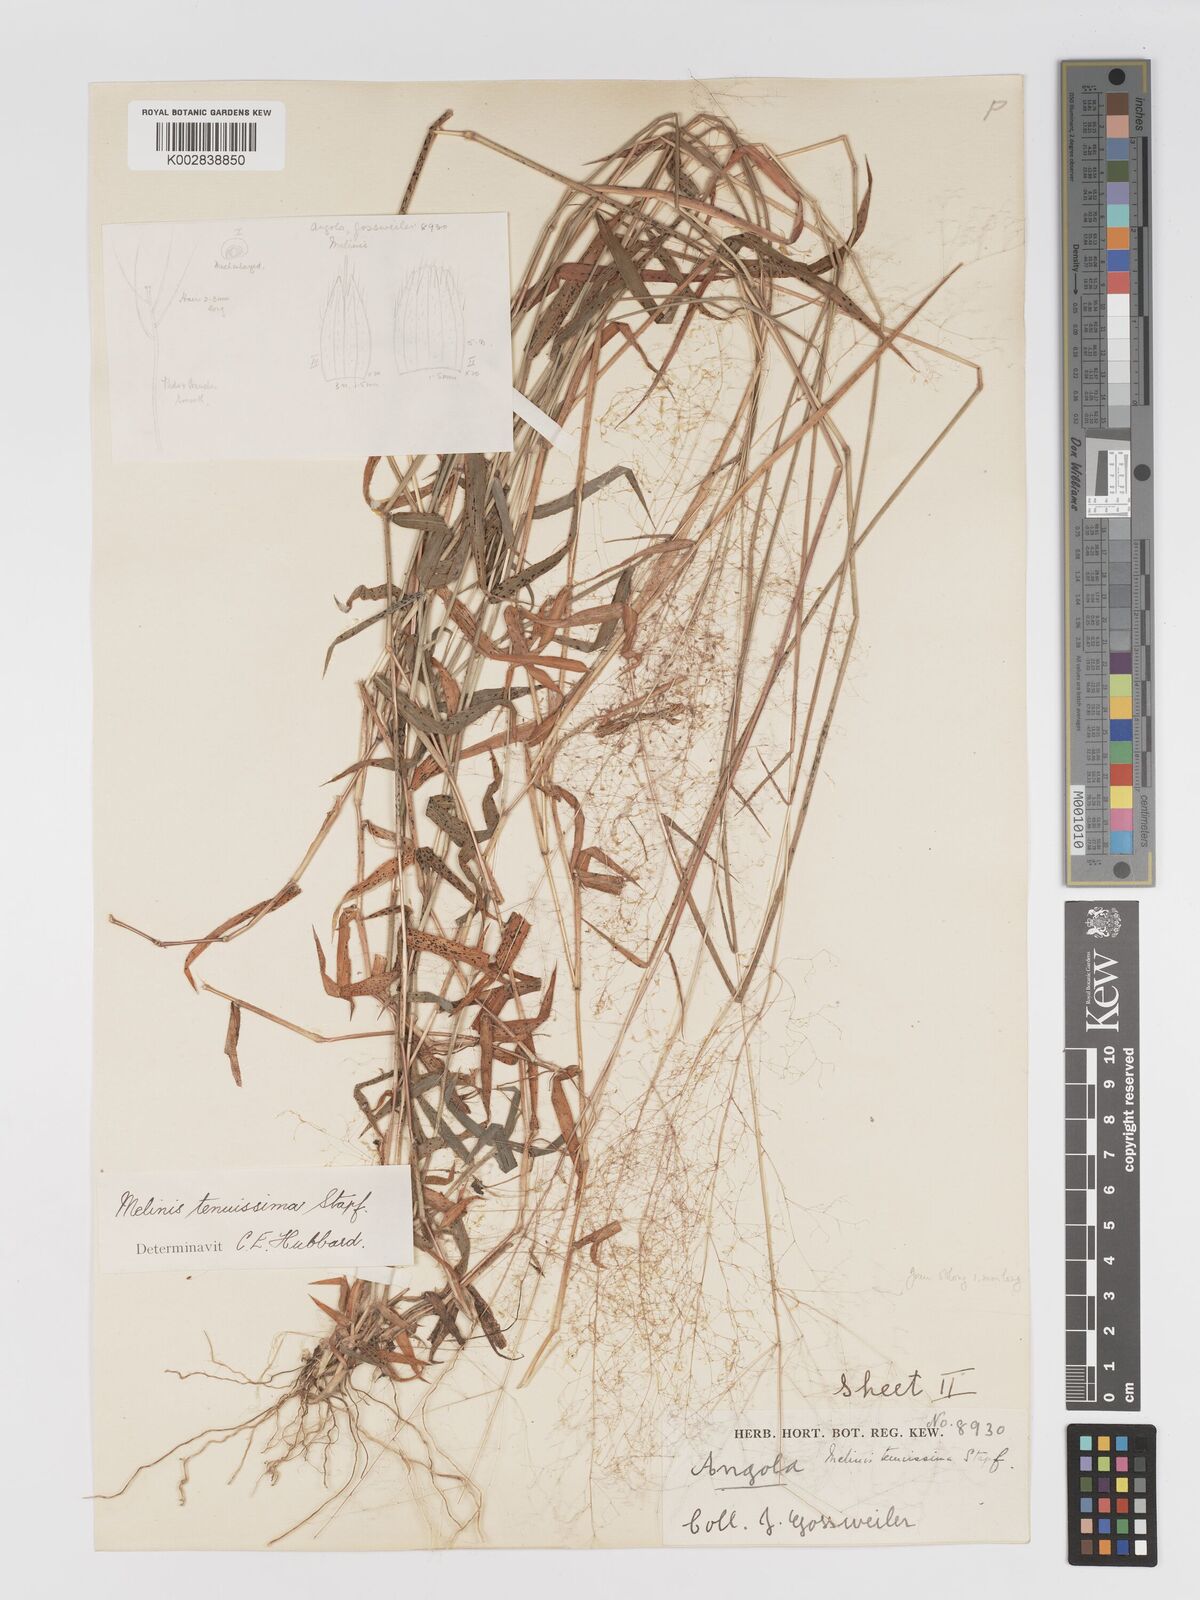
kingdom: Plantae
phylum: Tracheophyta
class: Liliopsida
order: Poales
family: Poaceae
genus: Melinis
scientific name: Melinis tenuissima
